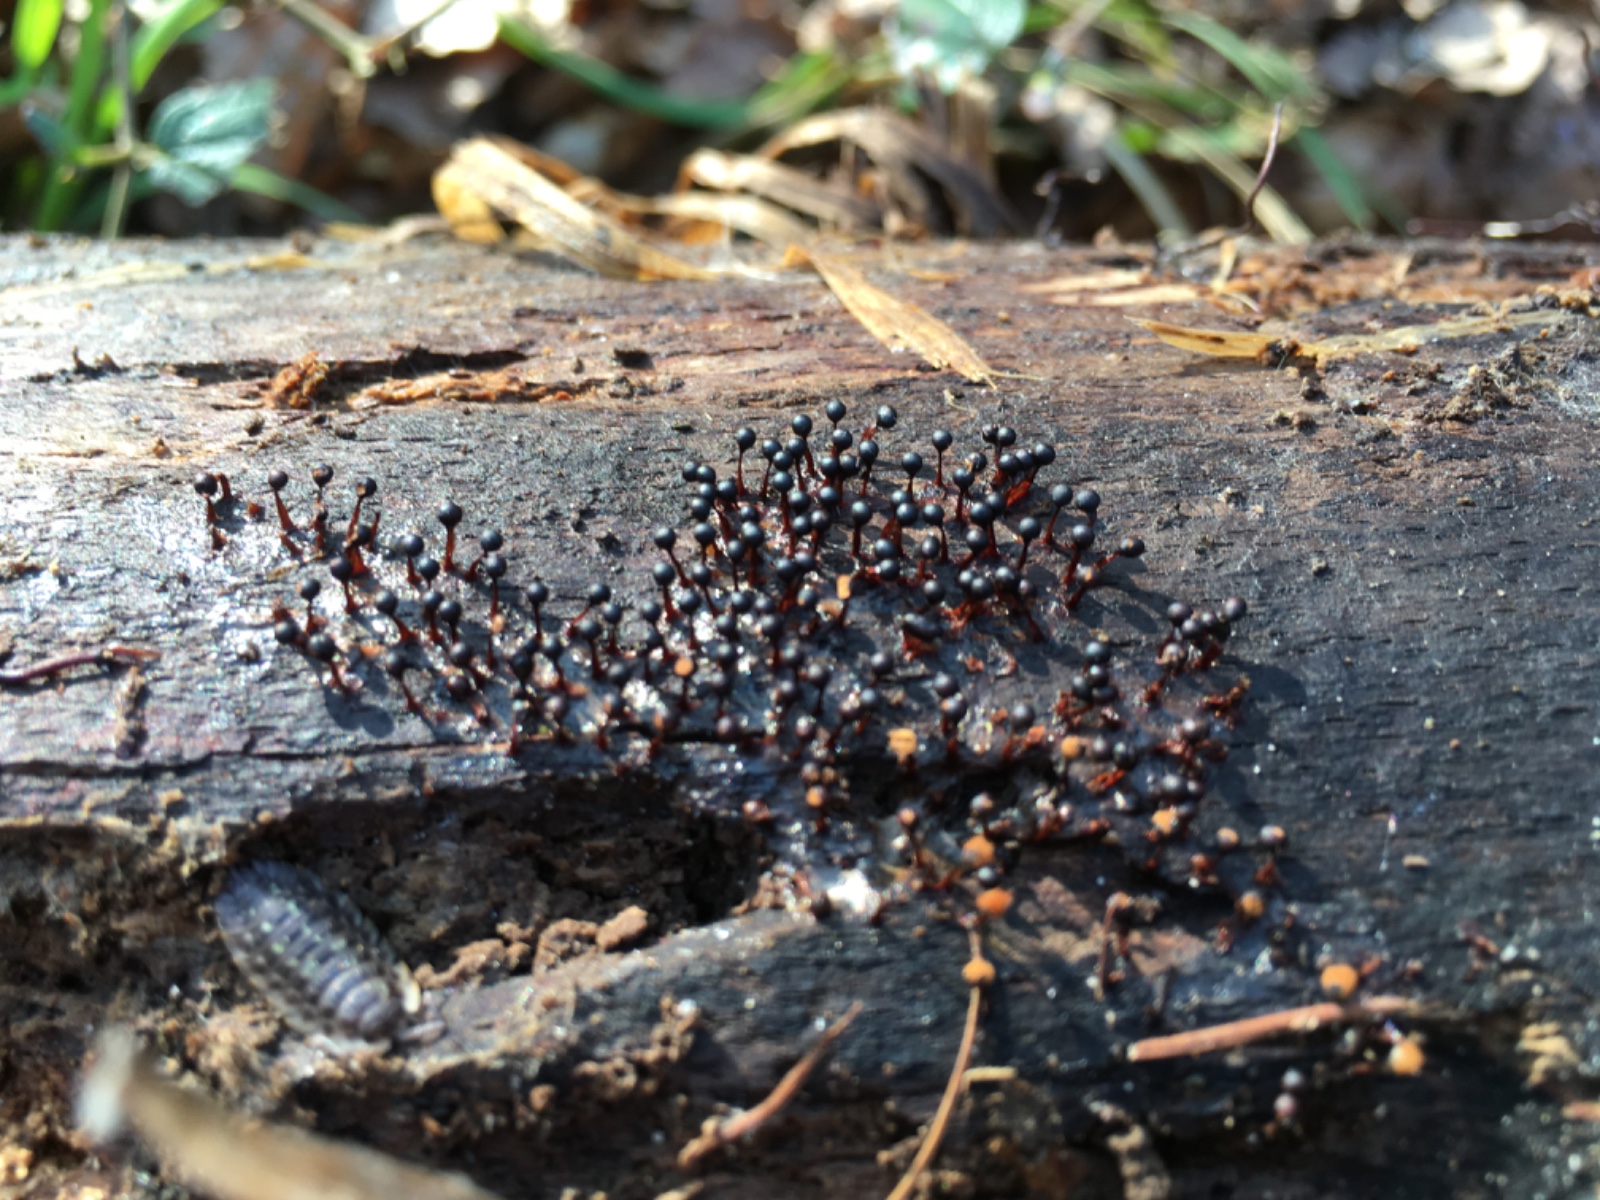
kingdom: Protozoa
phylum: Mycetozoa
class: Myxomycetes
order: Trichiales
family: Trichiaceae
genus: Metatrichia
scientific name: Metatrichia floriformis
